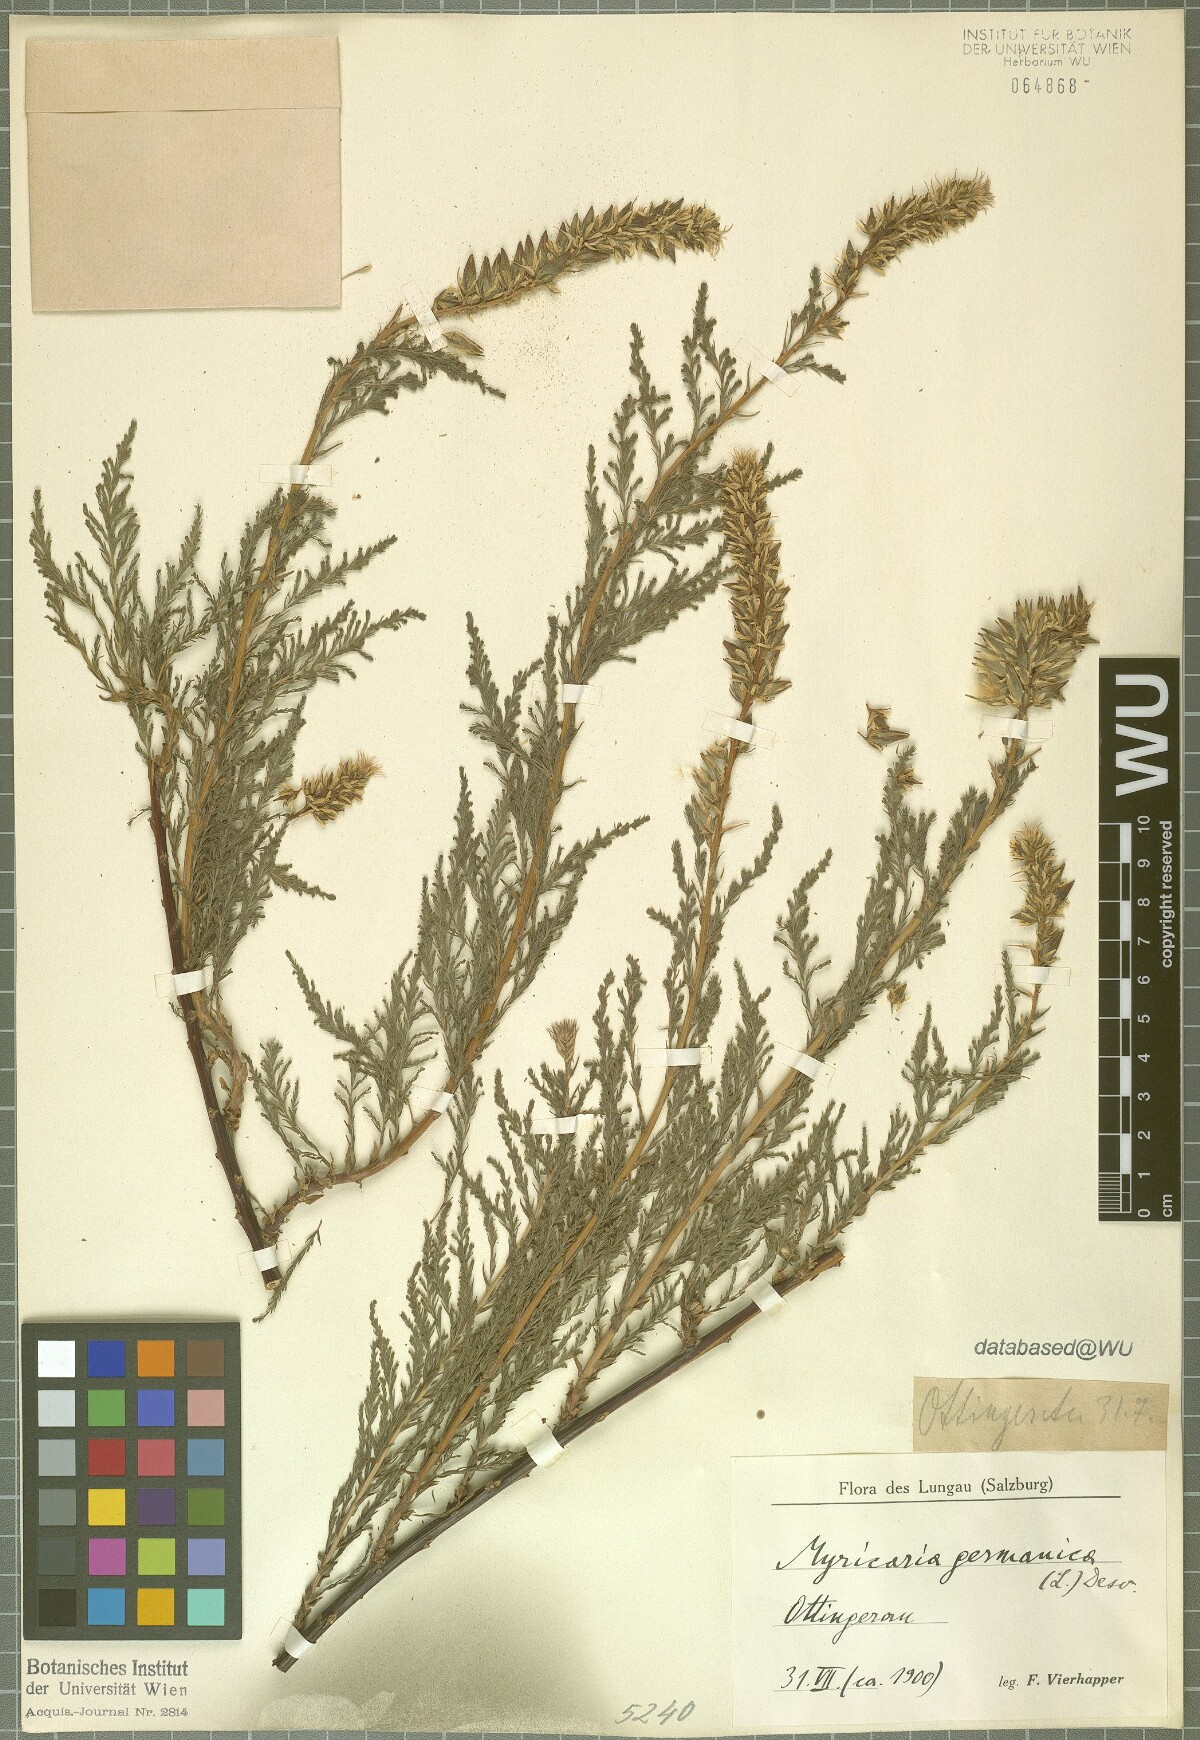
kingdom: Plantae
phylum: Tracheophyta
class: Magnoliopsida
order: Caryophyllales
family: Tamaricaceae
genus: Myricaria
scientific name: Myricaria germanica
